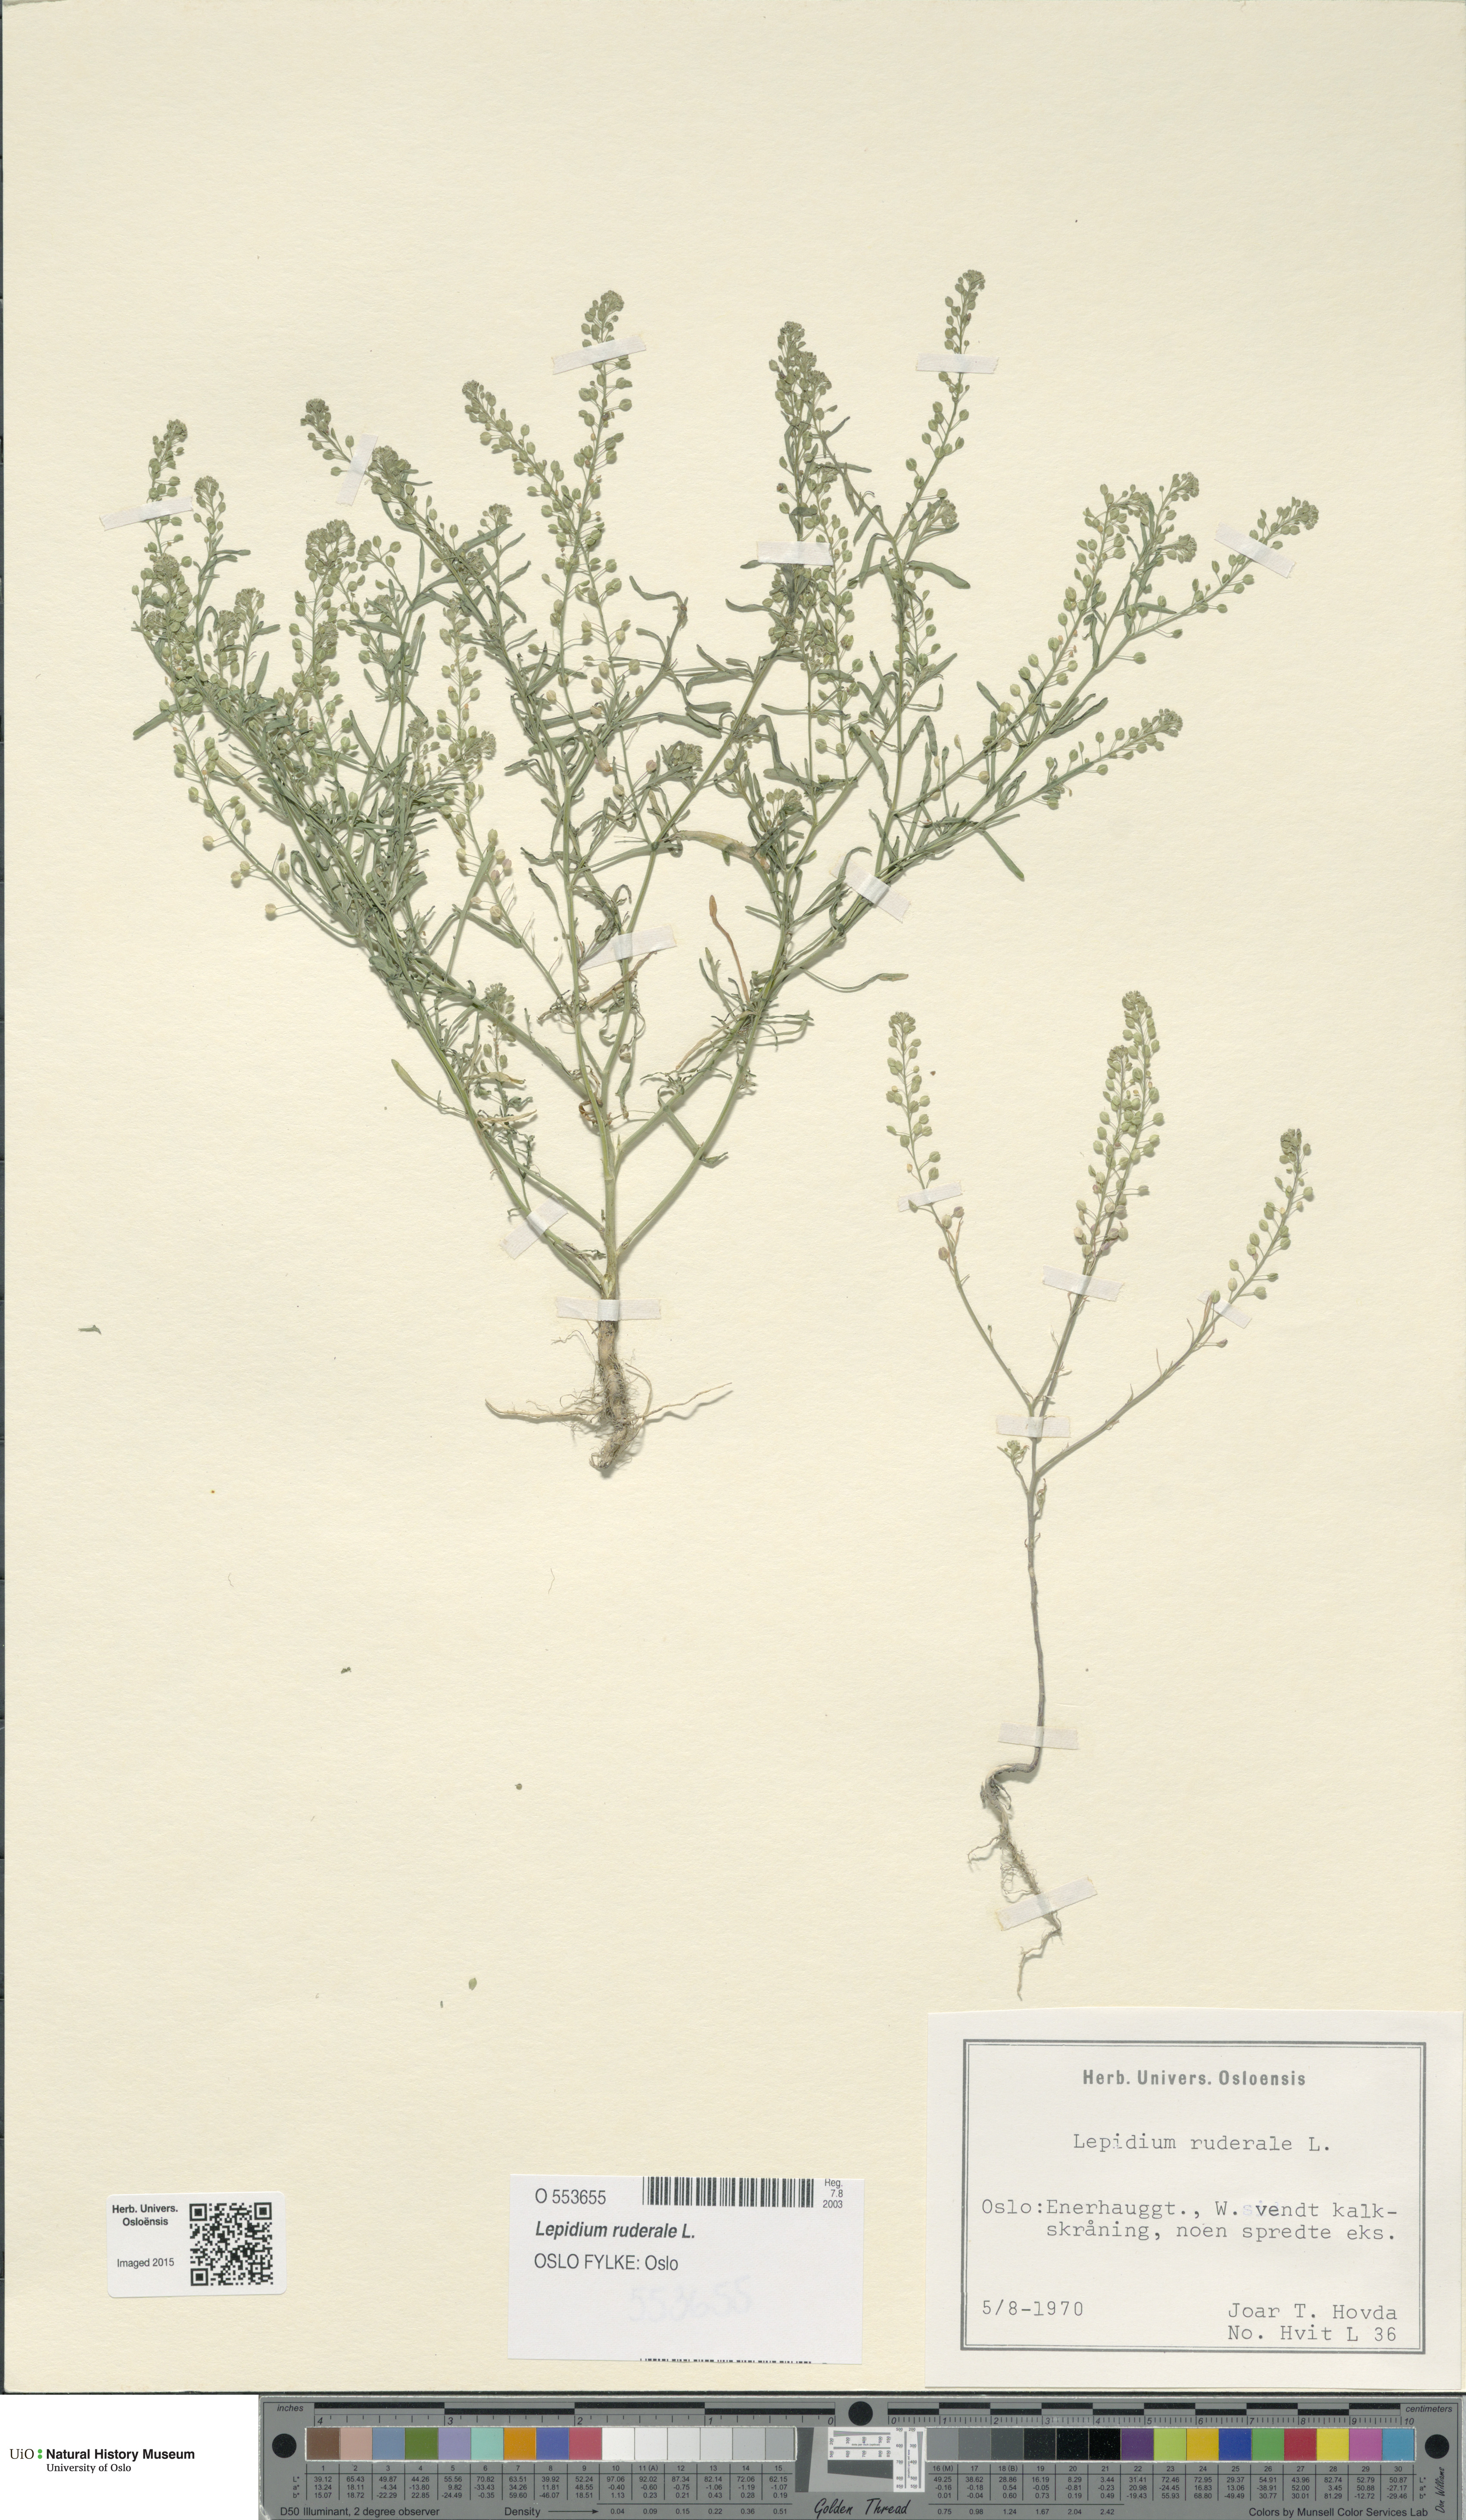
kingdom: Plantae
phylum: Tracheophyta
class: Magnoliopsida
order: Brassicales
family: Brassicaceae
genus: Lepidium
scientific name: Lepidium ruderale
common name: Narrow-leaved pepperwort
